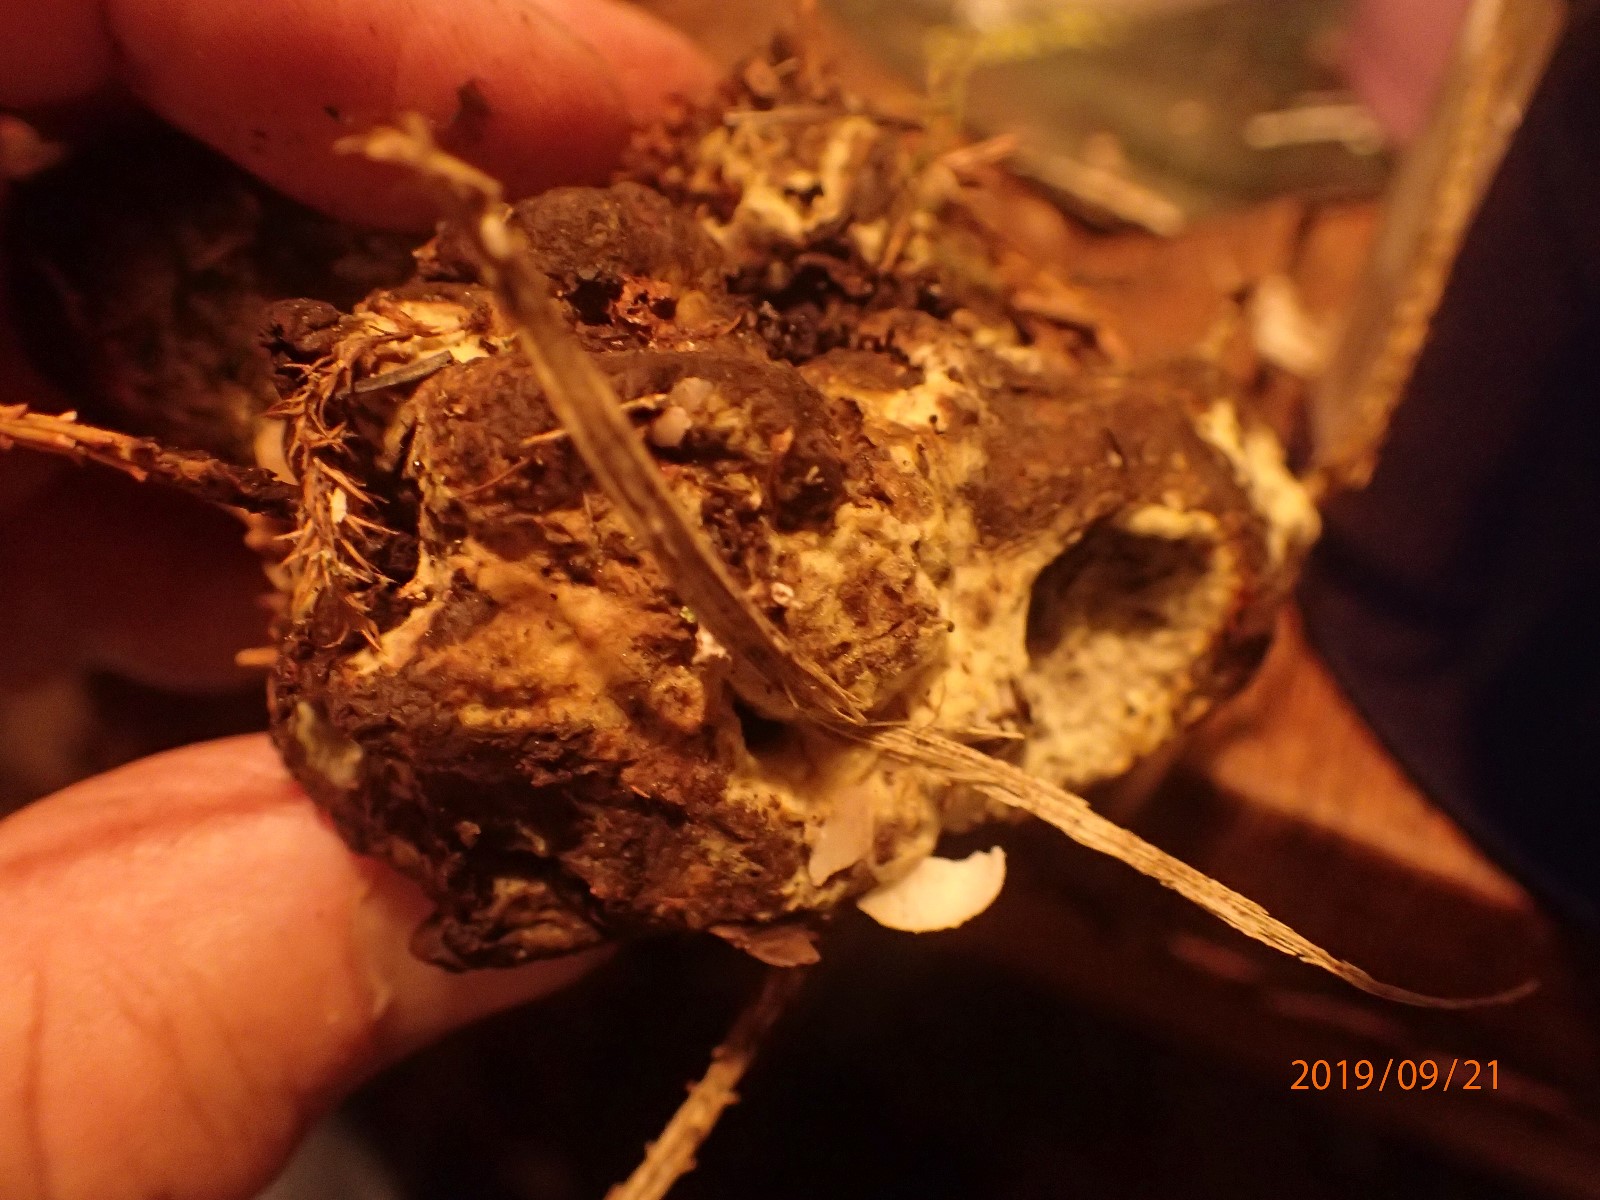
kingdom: Fungi
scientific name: Fungi
